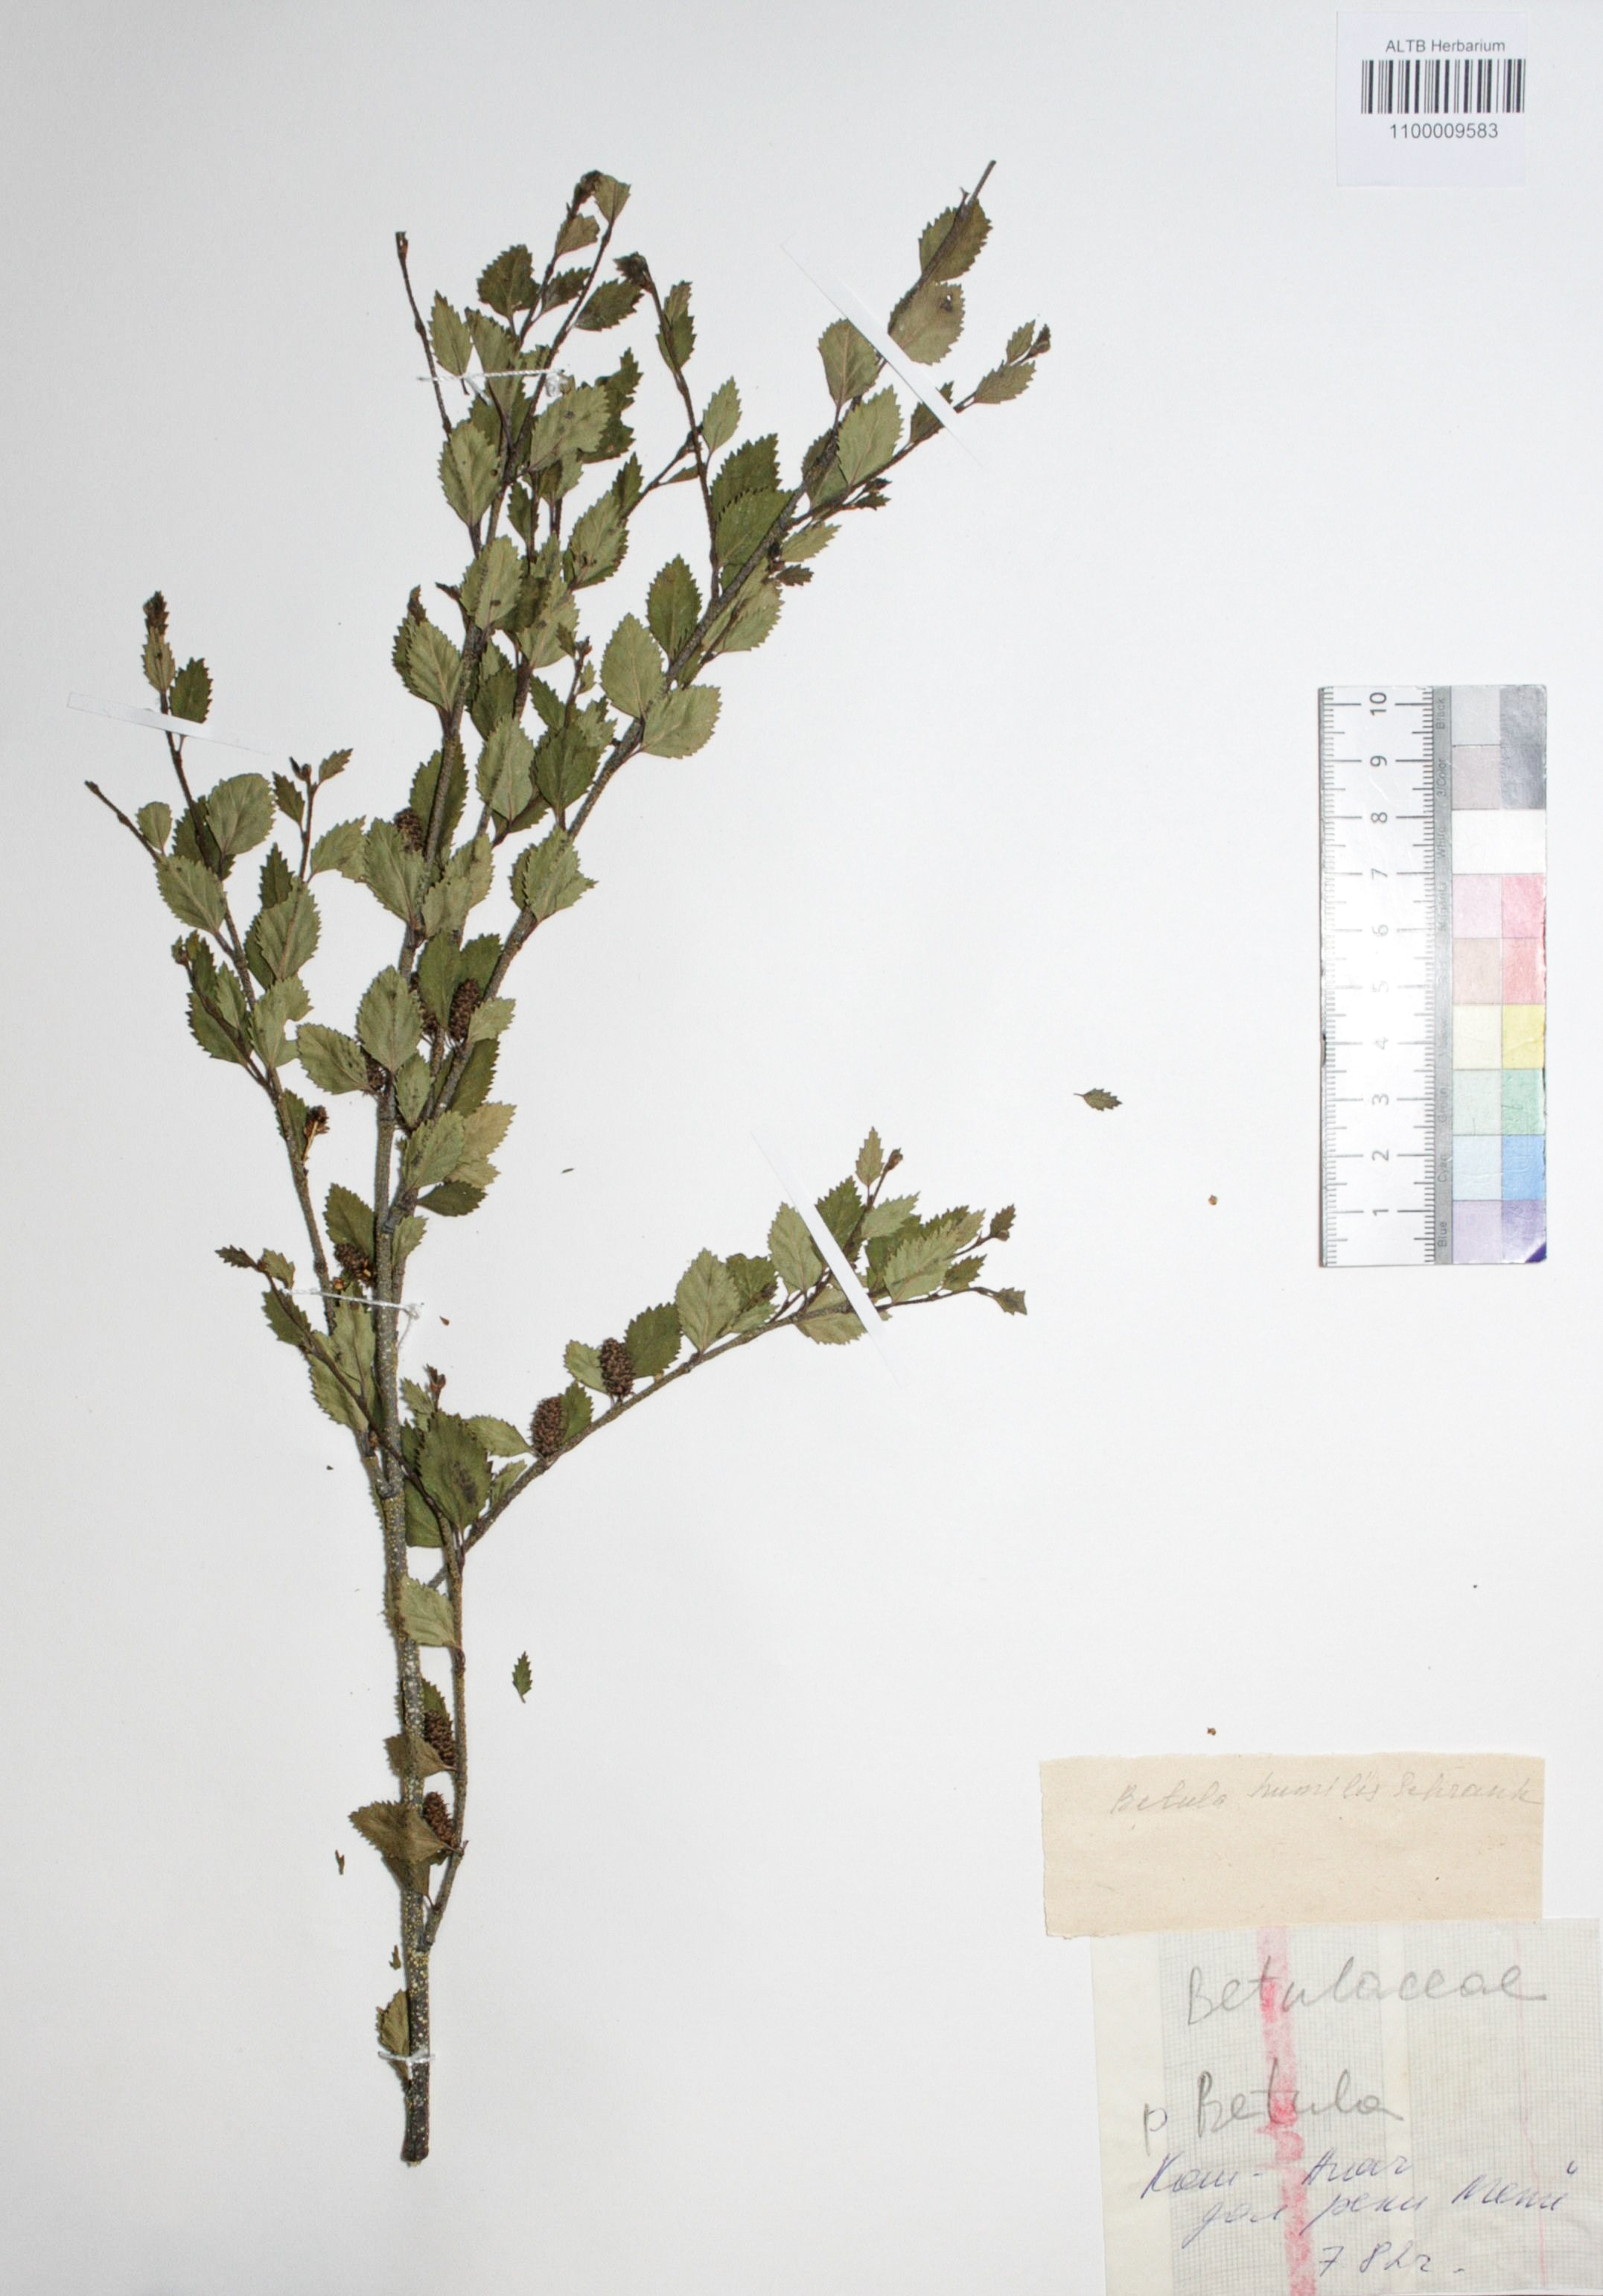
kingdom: Plantae
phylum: Tracheophyta
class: Magnoliopsida
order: Fagales
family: Betulaceae
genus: Betula
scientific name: Betula humilis
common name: Shrubby birch
